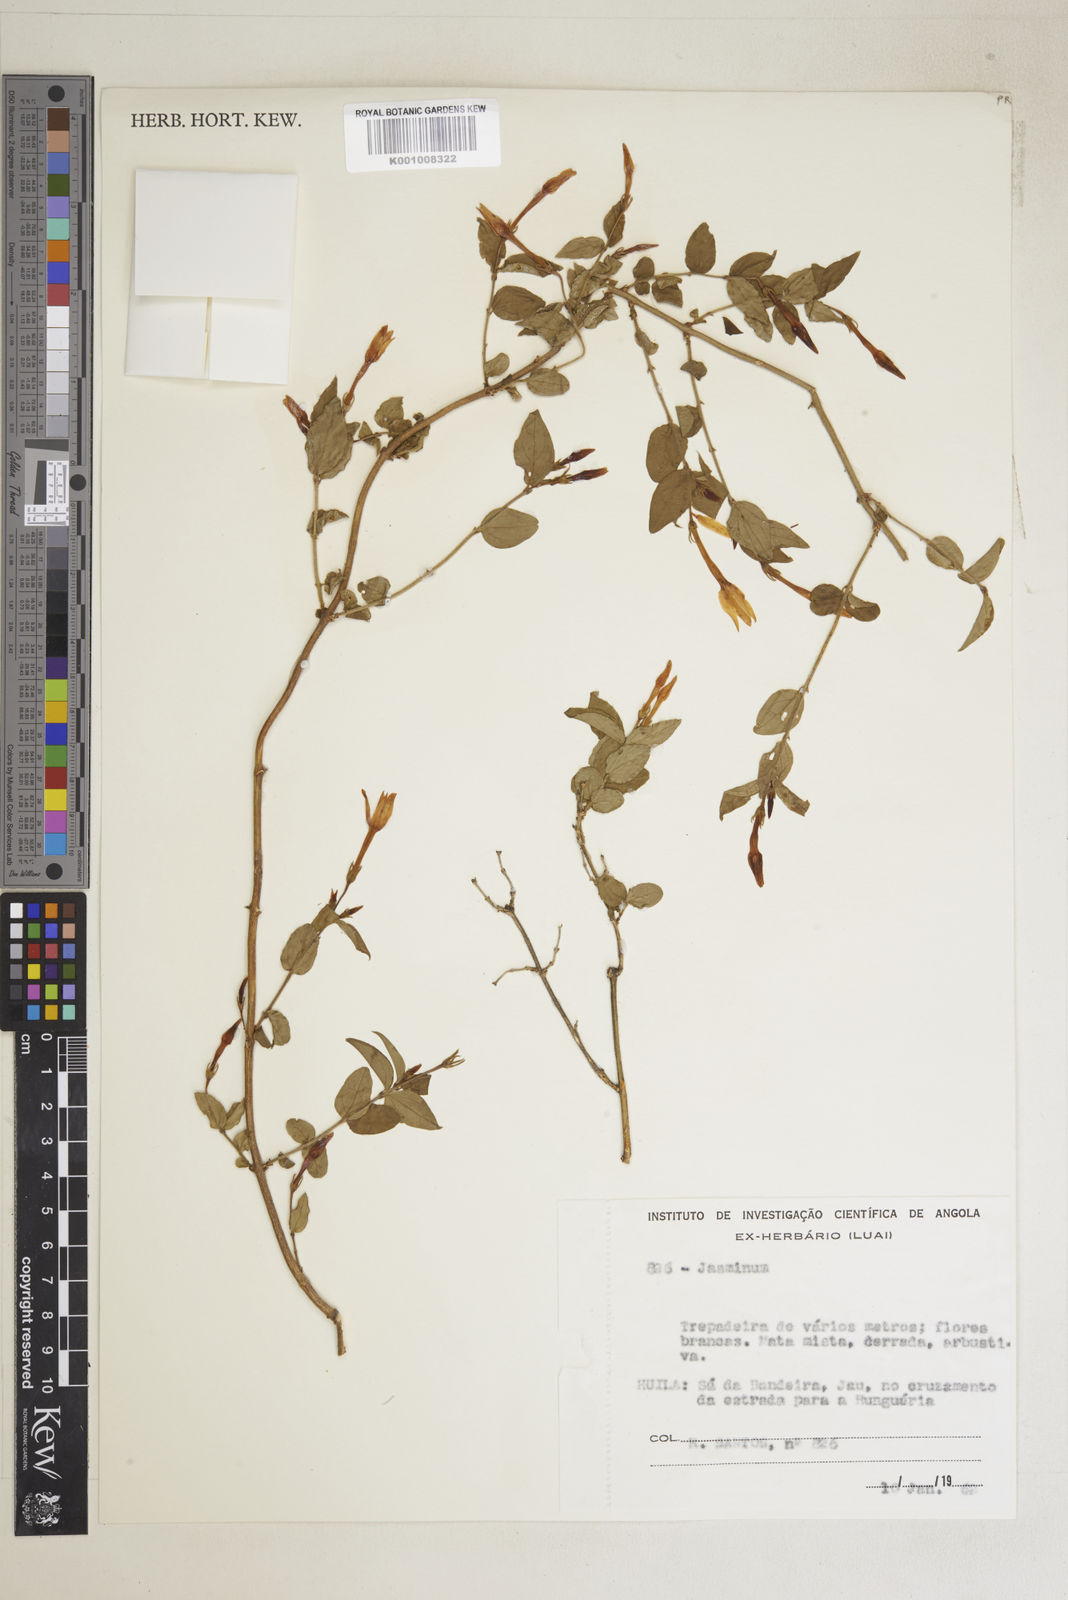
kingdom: Plantae
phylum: Tracheophyta
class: Magnoliopsida
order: Lamiales
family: Oleaceae
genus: Jasminum
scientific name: Jasminum streptopus
